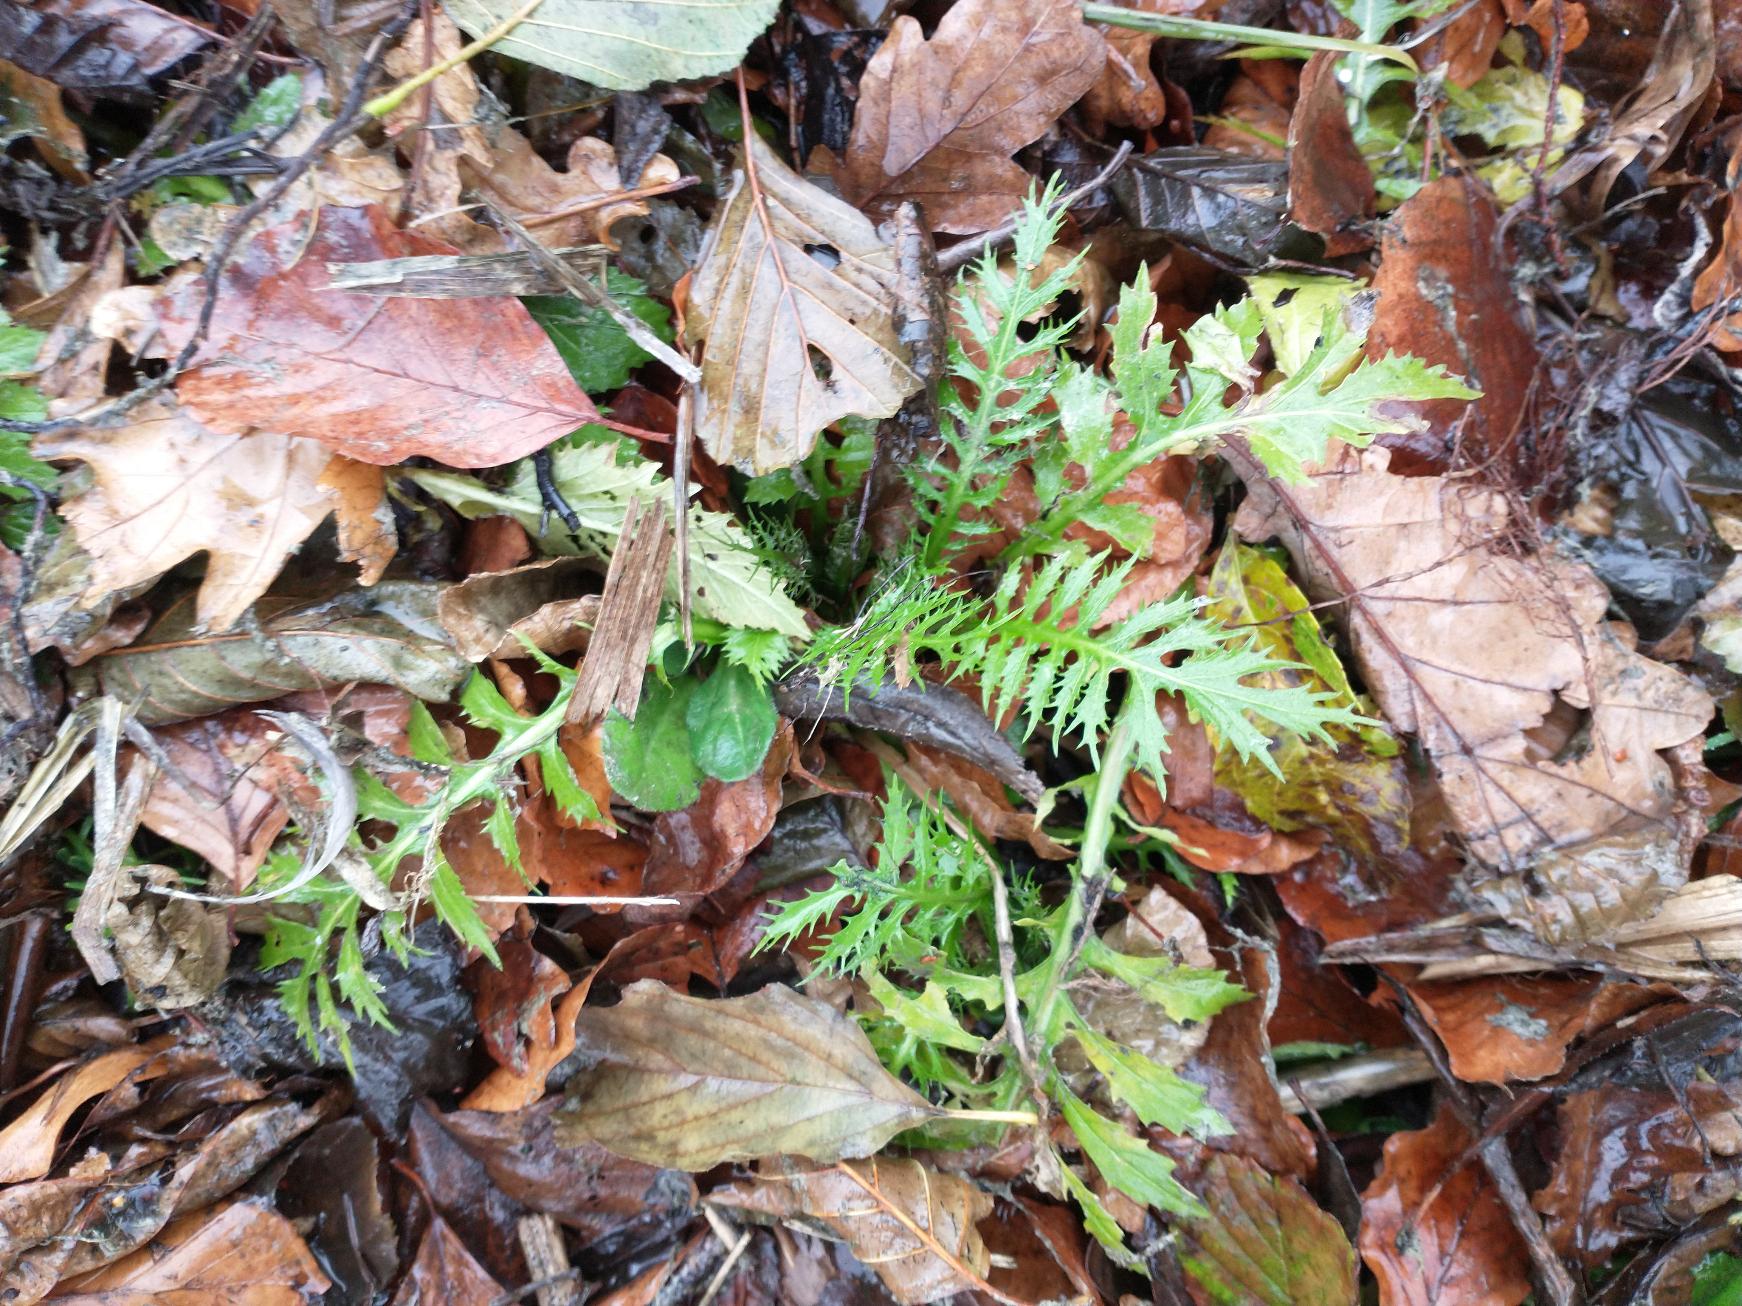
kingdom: Plantae
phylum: Tracheophyta
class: Magnoliopsida
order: Brassicales
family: Brassicaceae
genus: Rorippa
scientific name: Rorippa amphibia
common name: Vandpeberrod
